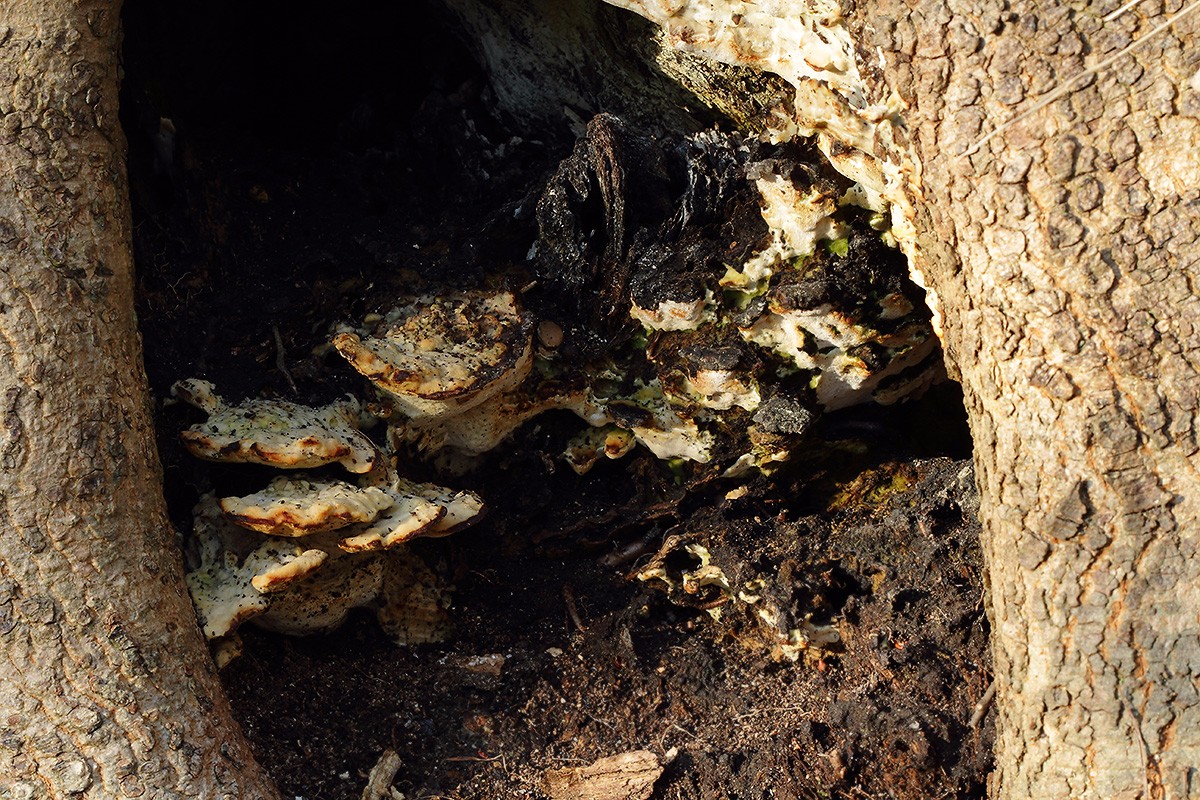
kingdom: Fungi
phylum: Basidiomycota
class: Agaricomycetes
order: Hymenochaetales
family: Oxyporaceae
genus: Oxyporus
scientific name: Oxyporus populinus
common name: sammenvokset trylleporesvamp
